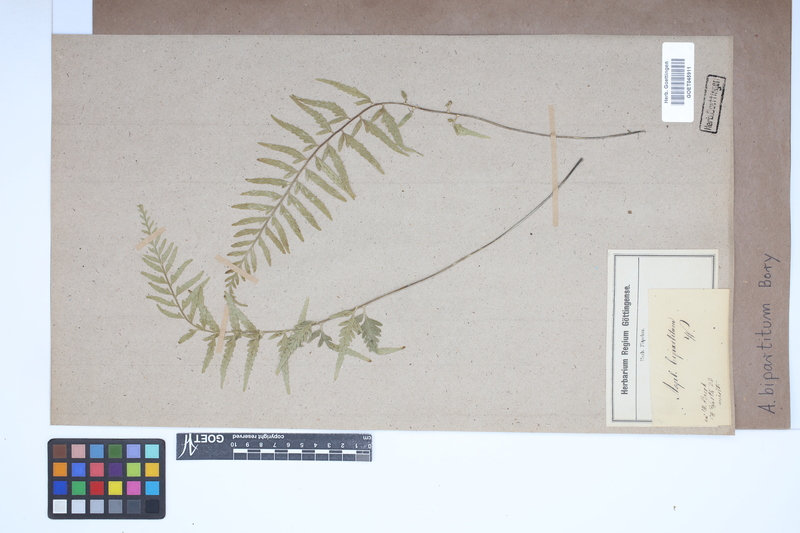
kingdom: Plantae
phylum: Tracheophyta
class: Polypodiopsida
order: Polypodiales
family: Aspleniaceae
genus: Asplenium
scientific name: Asplenium bipartitum
